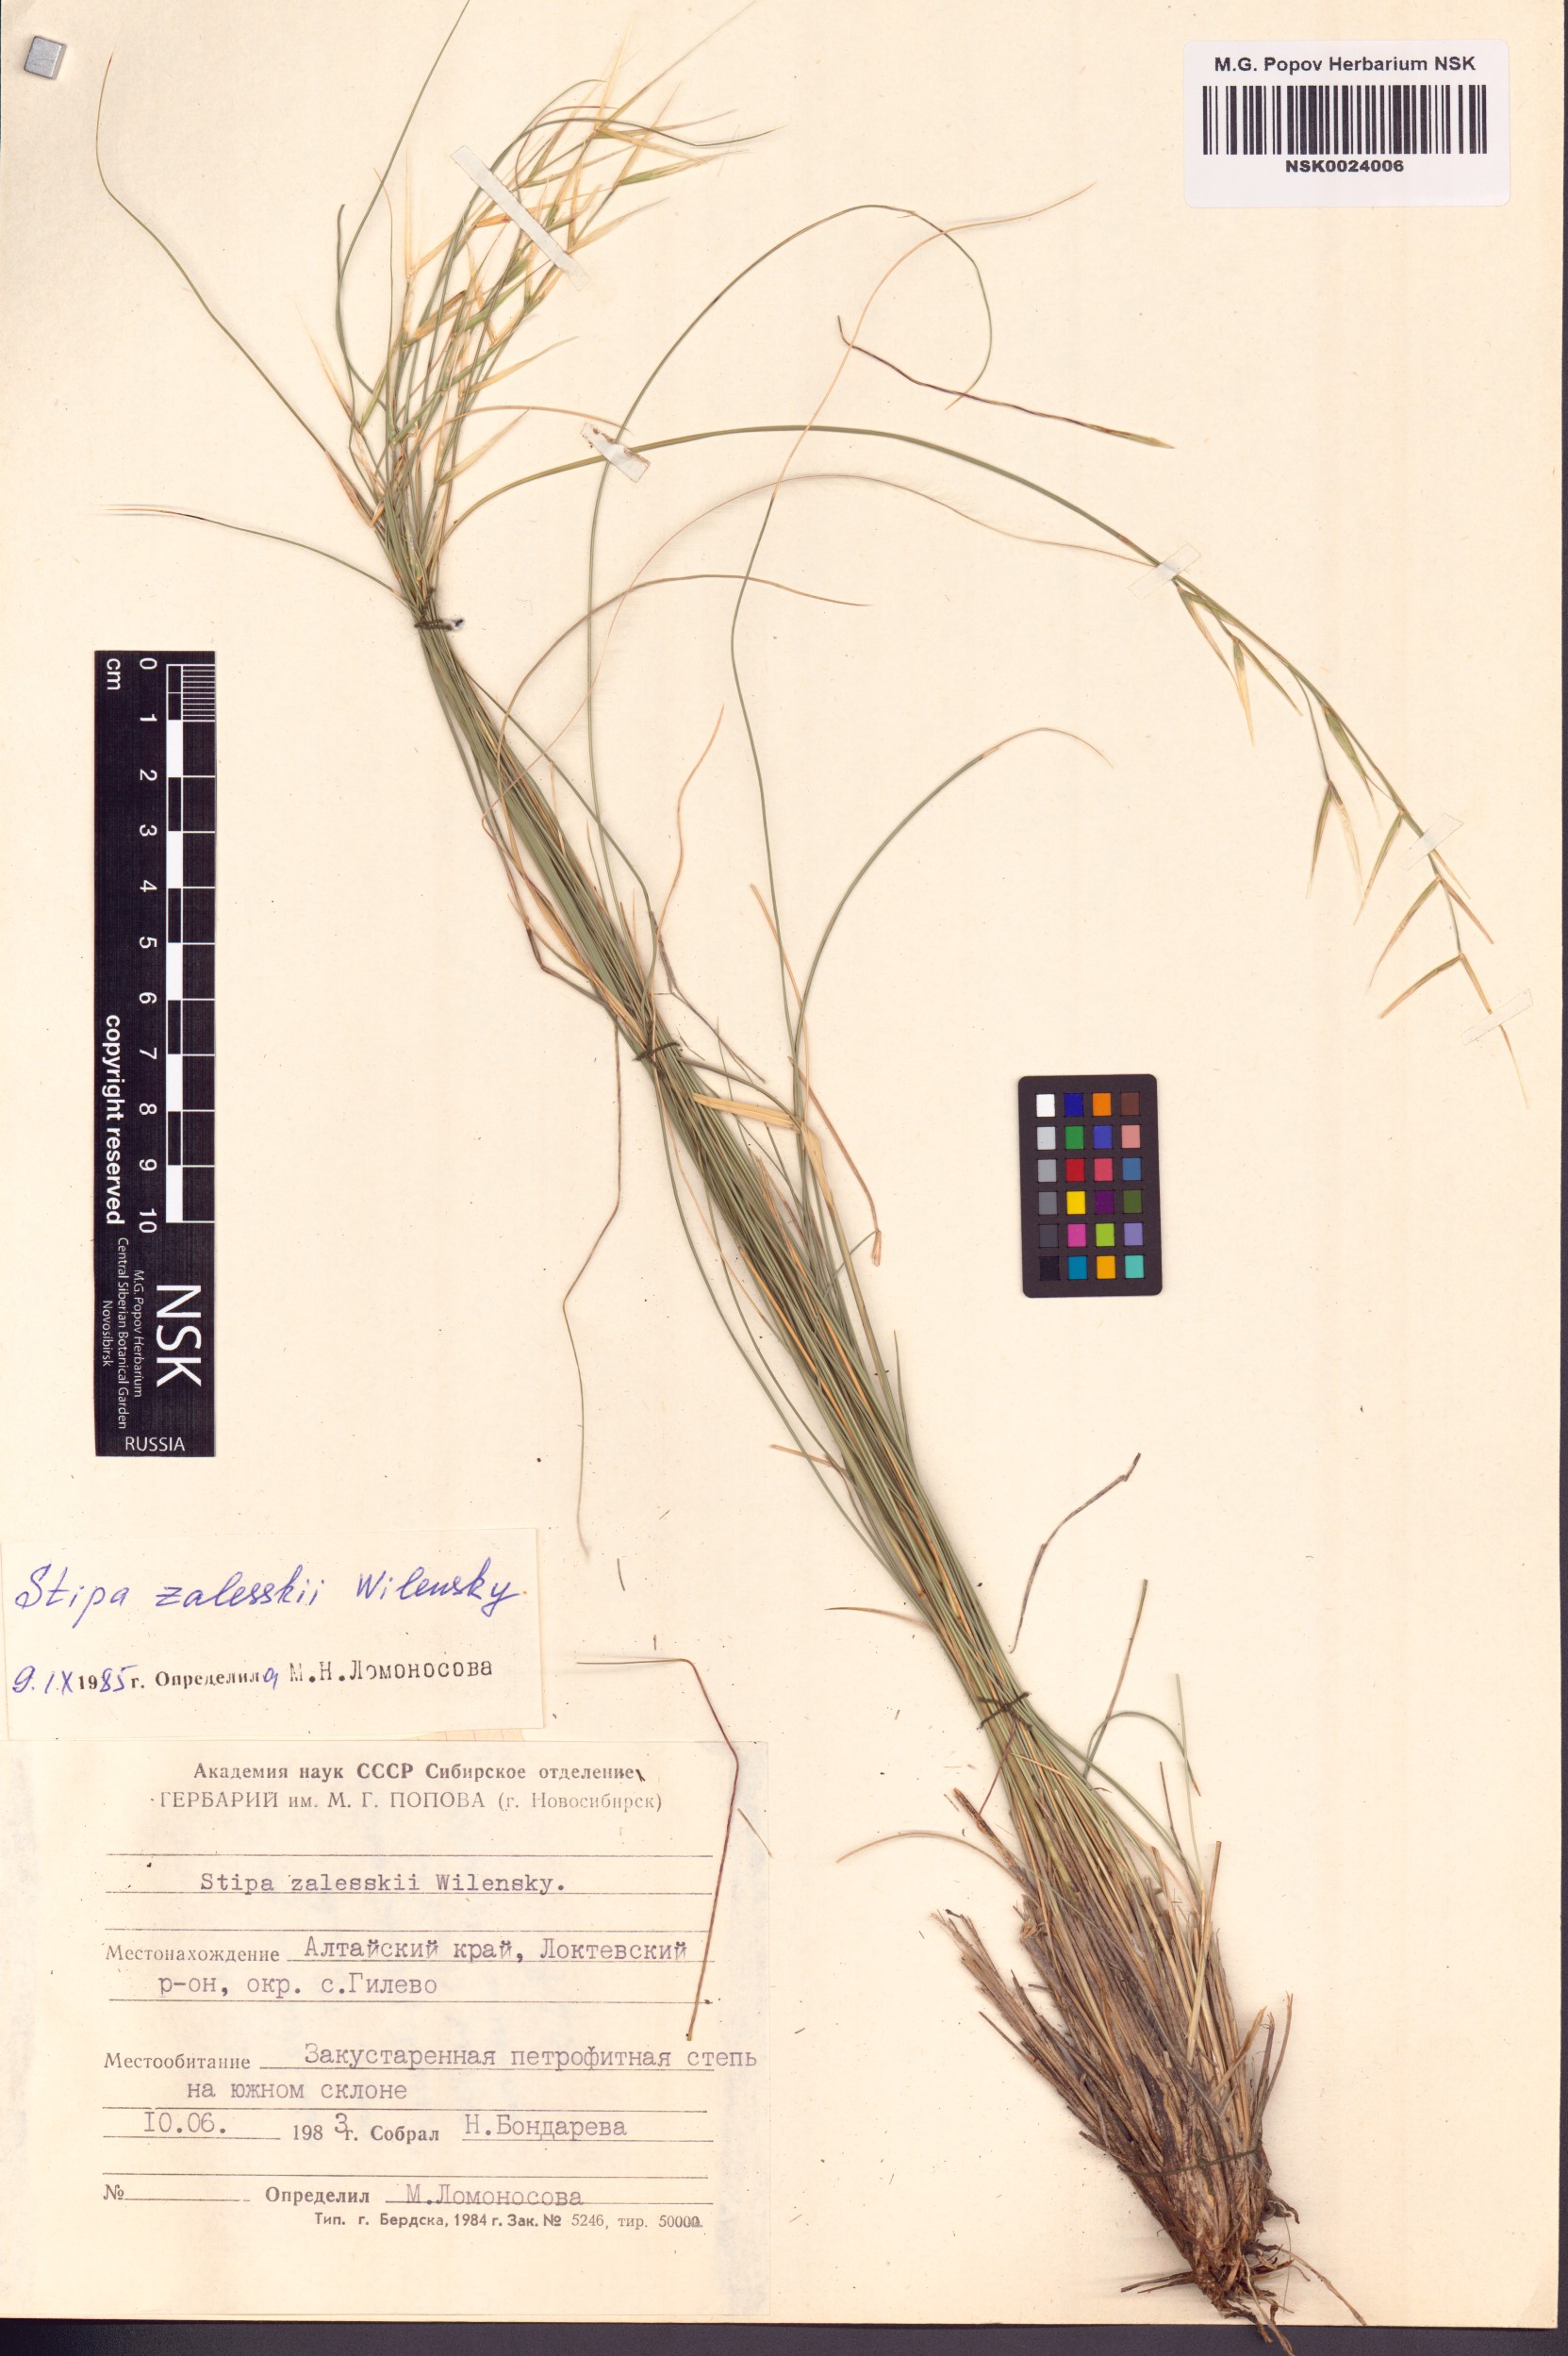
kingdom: Plantae
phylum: Tracheophyta
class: Liliopsida
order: Poales
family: Poaceae
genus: Stipa
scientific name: Stipa zalesskii
